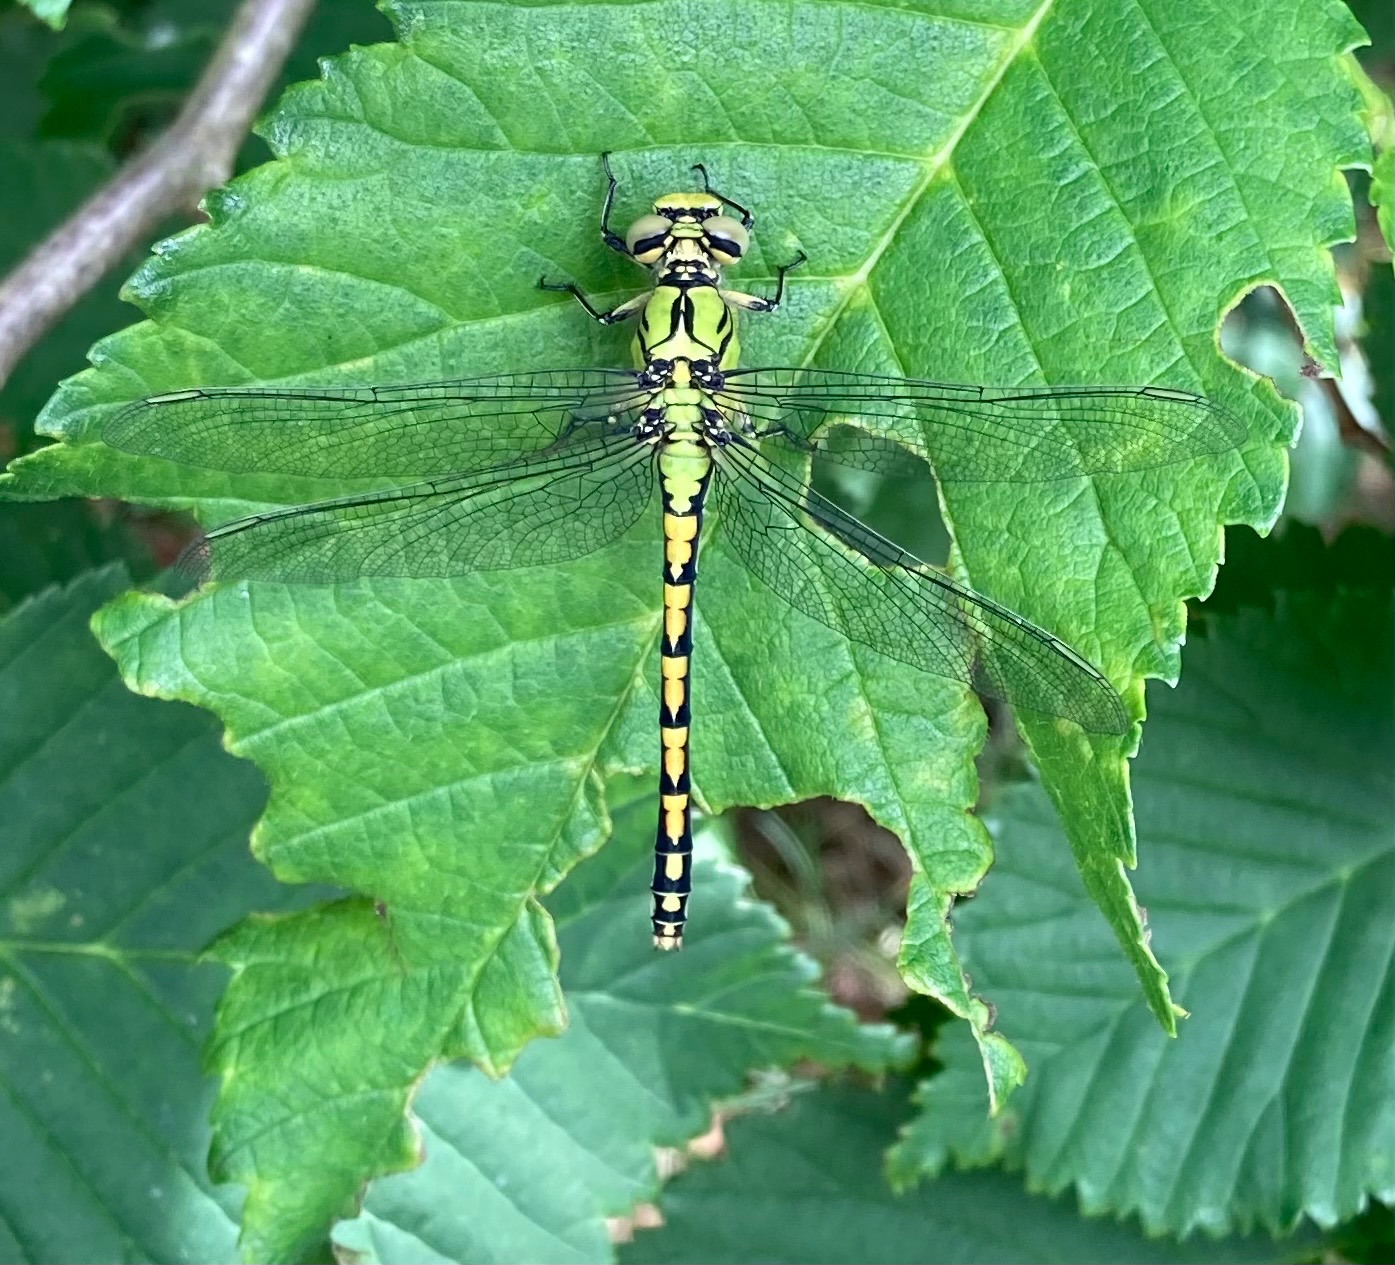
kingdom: Animalia
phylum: Arthropoda
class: Insecta
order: Odonata
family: Gomphidae
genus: Ophiogomphus
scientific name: Ophiogomphus cecilia
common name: Grøn kølleguldsmed
